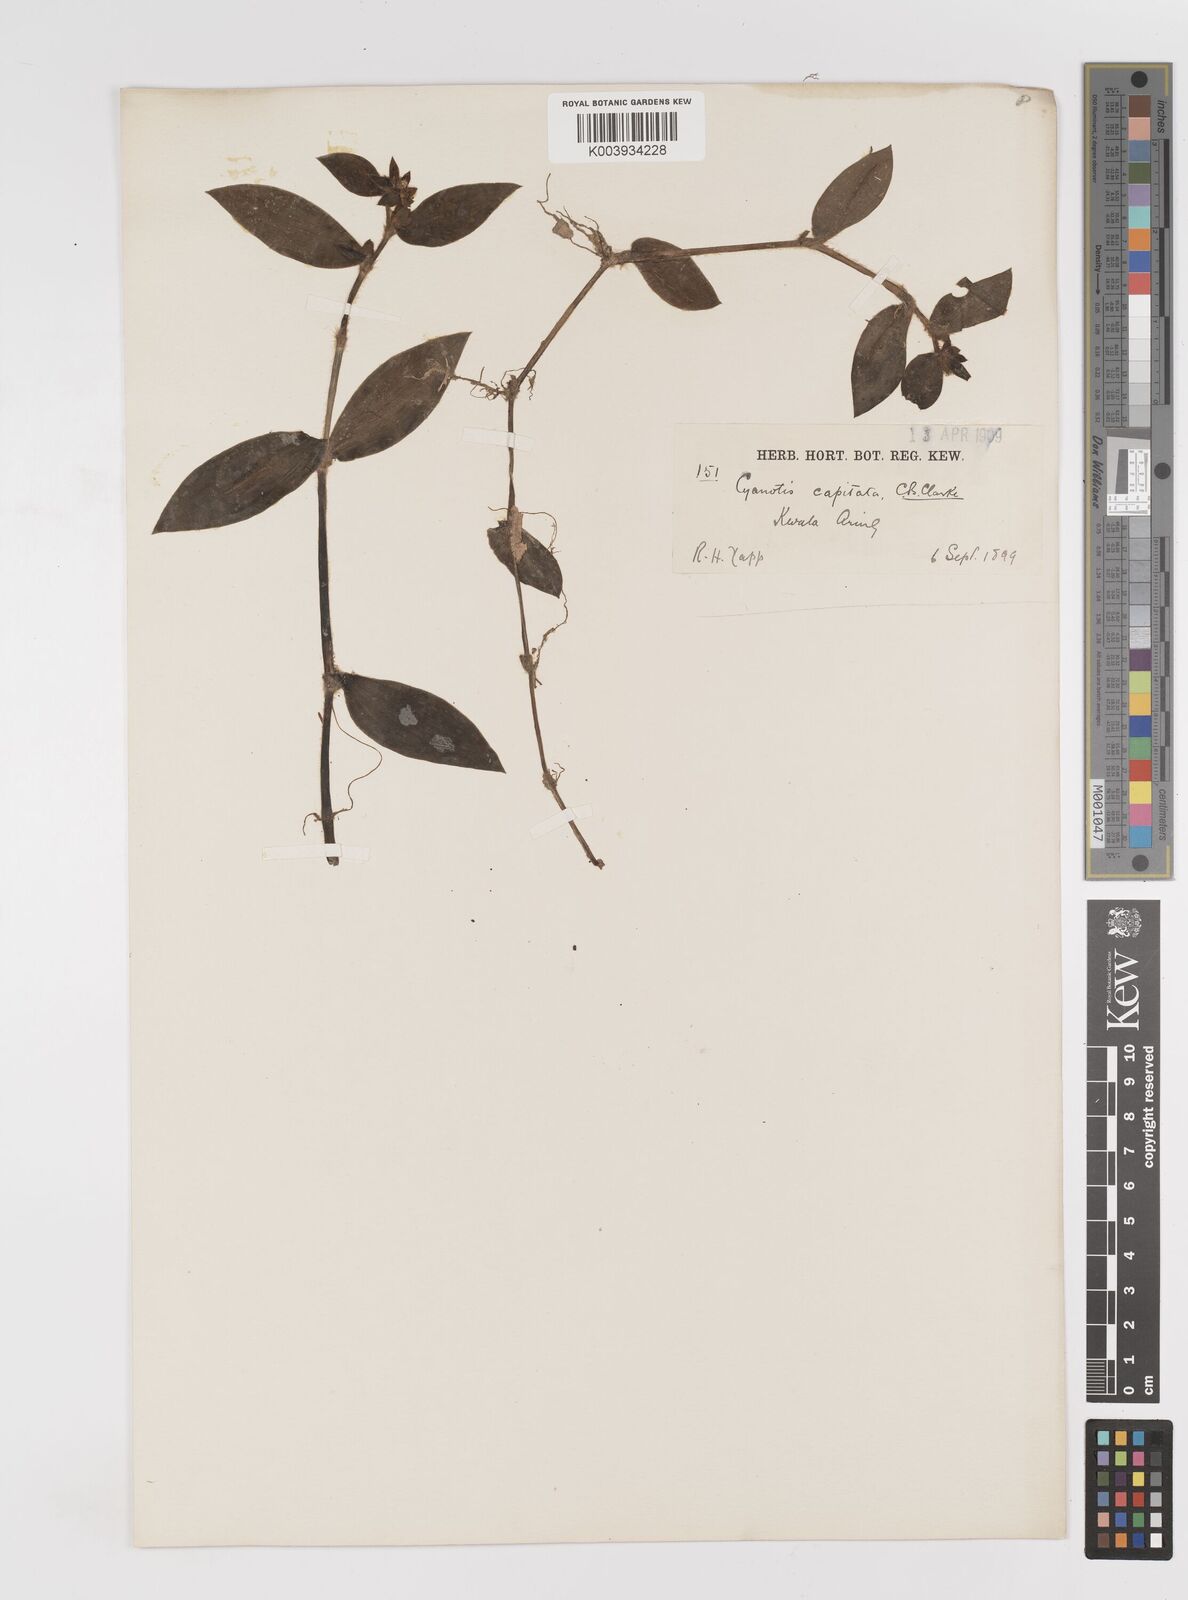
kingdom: Plantae
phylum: Tracheophyta
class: Liliopsida
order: Commelinales
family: Commelinaceae
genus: Cyanotis
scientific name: Cyanotis ciliata
